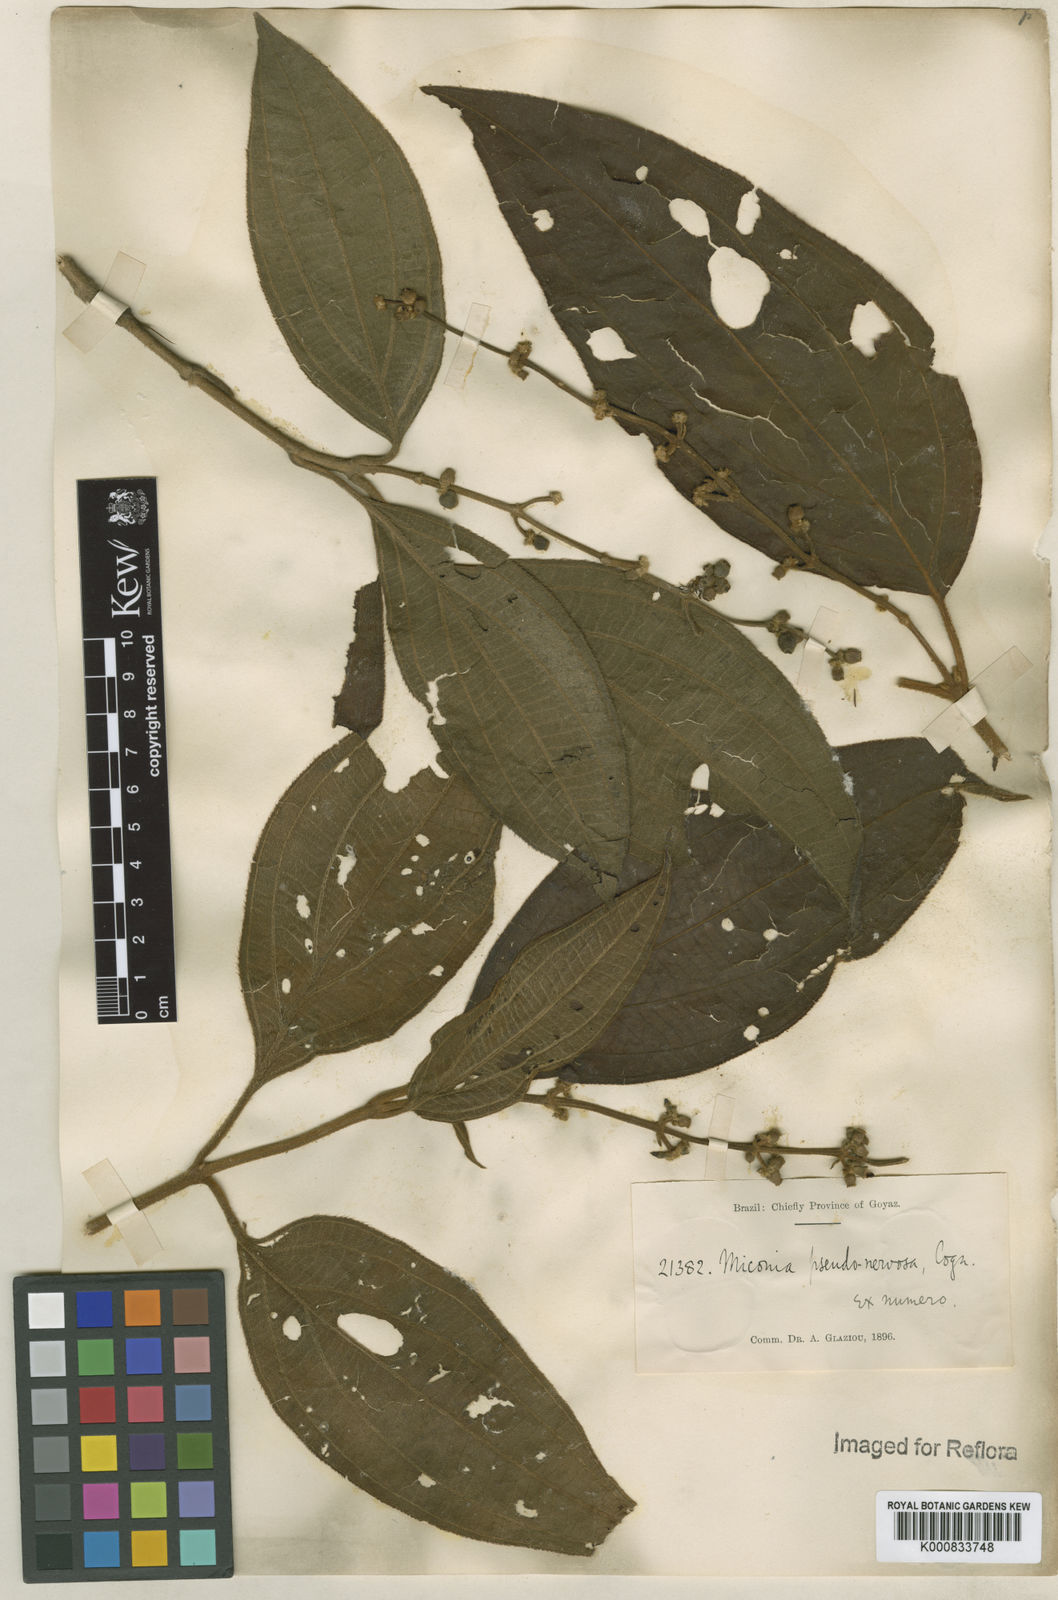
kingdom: Plantae
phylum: Tracheophyta
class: Magnoliopsida
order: Myrtales
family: Melastomataceae
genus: Miconia
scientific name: Miconia pseudonervosa
